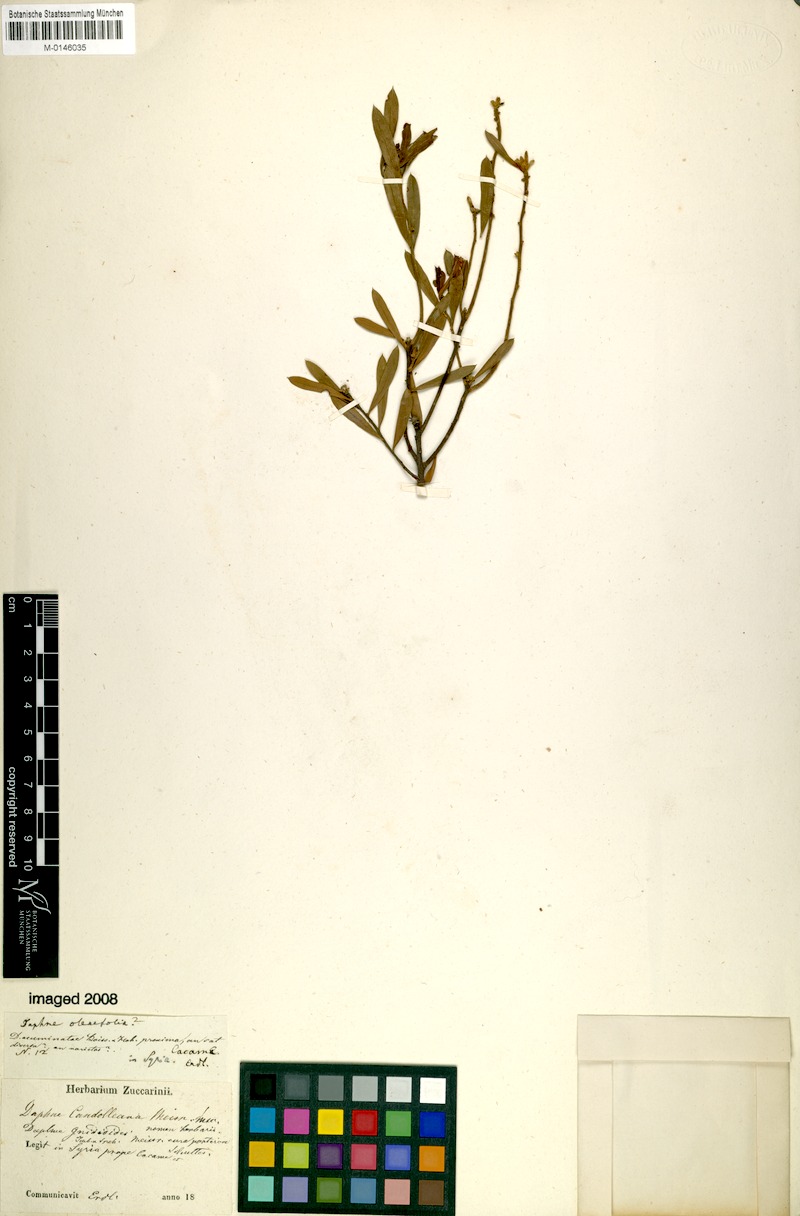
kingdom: Plantae
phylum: Tracheophyta
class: Magnoliopsida
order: Malvales
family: Thymelaeaceae
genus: Daphne
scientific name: Daphne sericea
